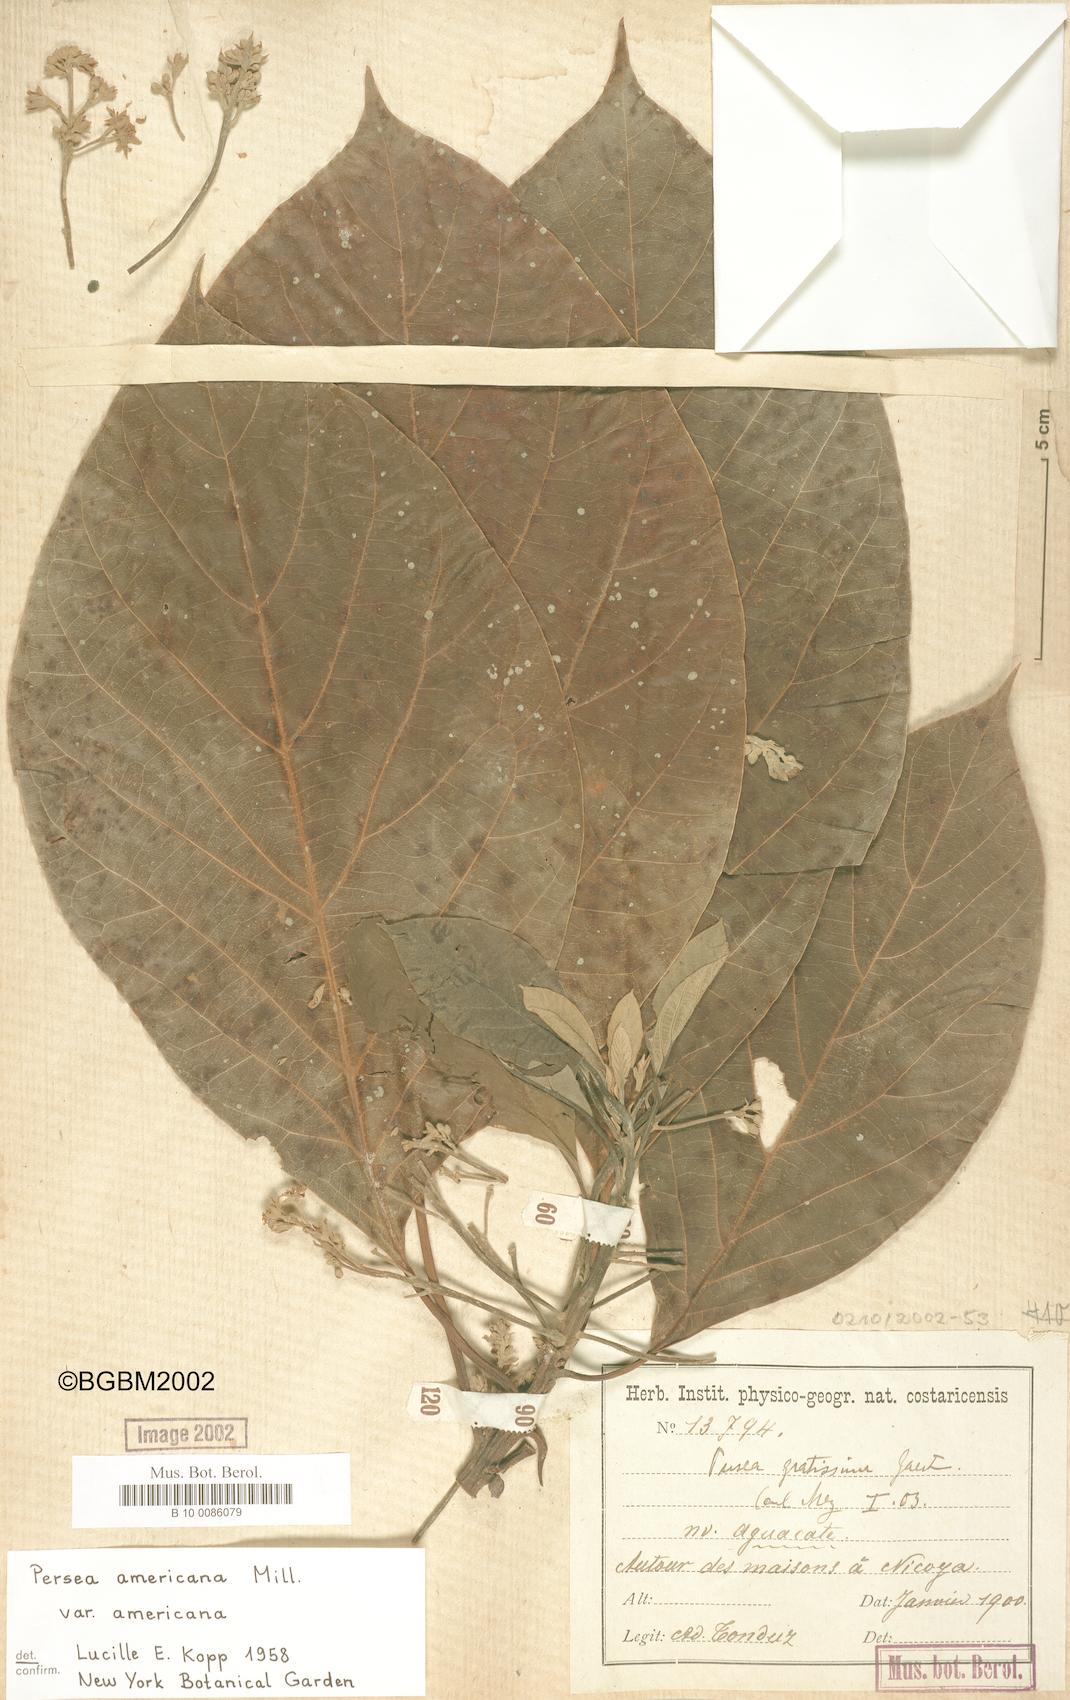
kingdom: Plantae
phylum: Tracheophyta
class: Magnoliopsida
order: Laurales
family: Lauraceae
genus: Persea
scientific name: Persea americana
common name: Avocado
